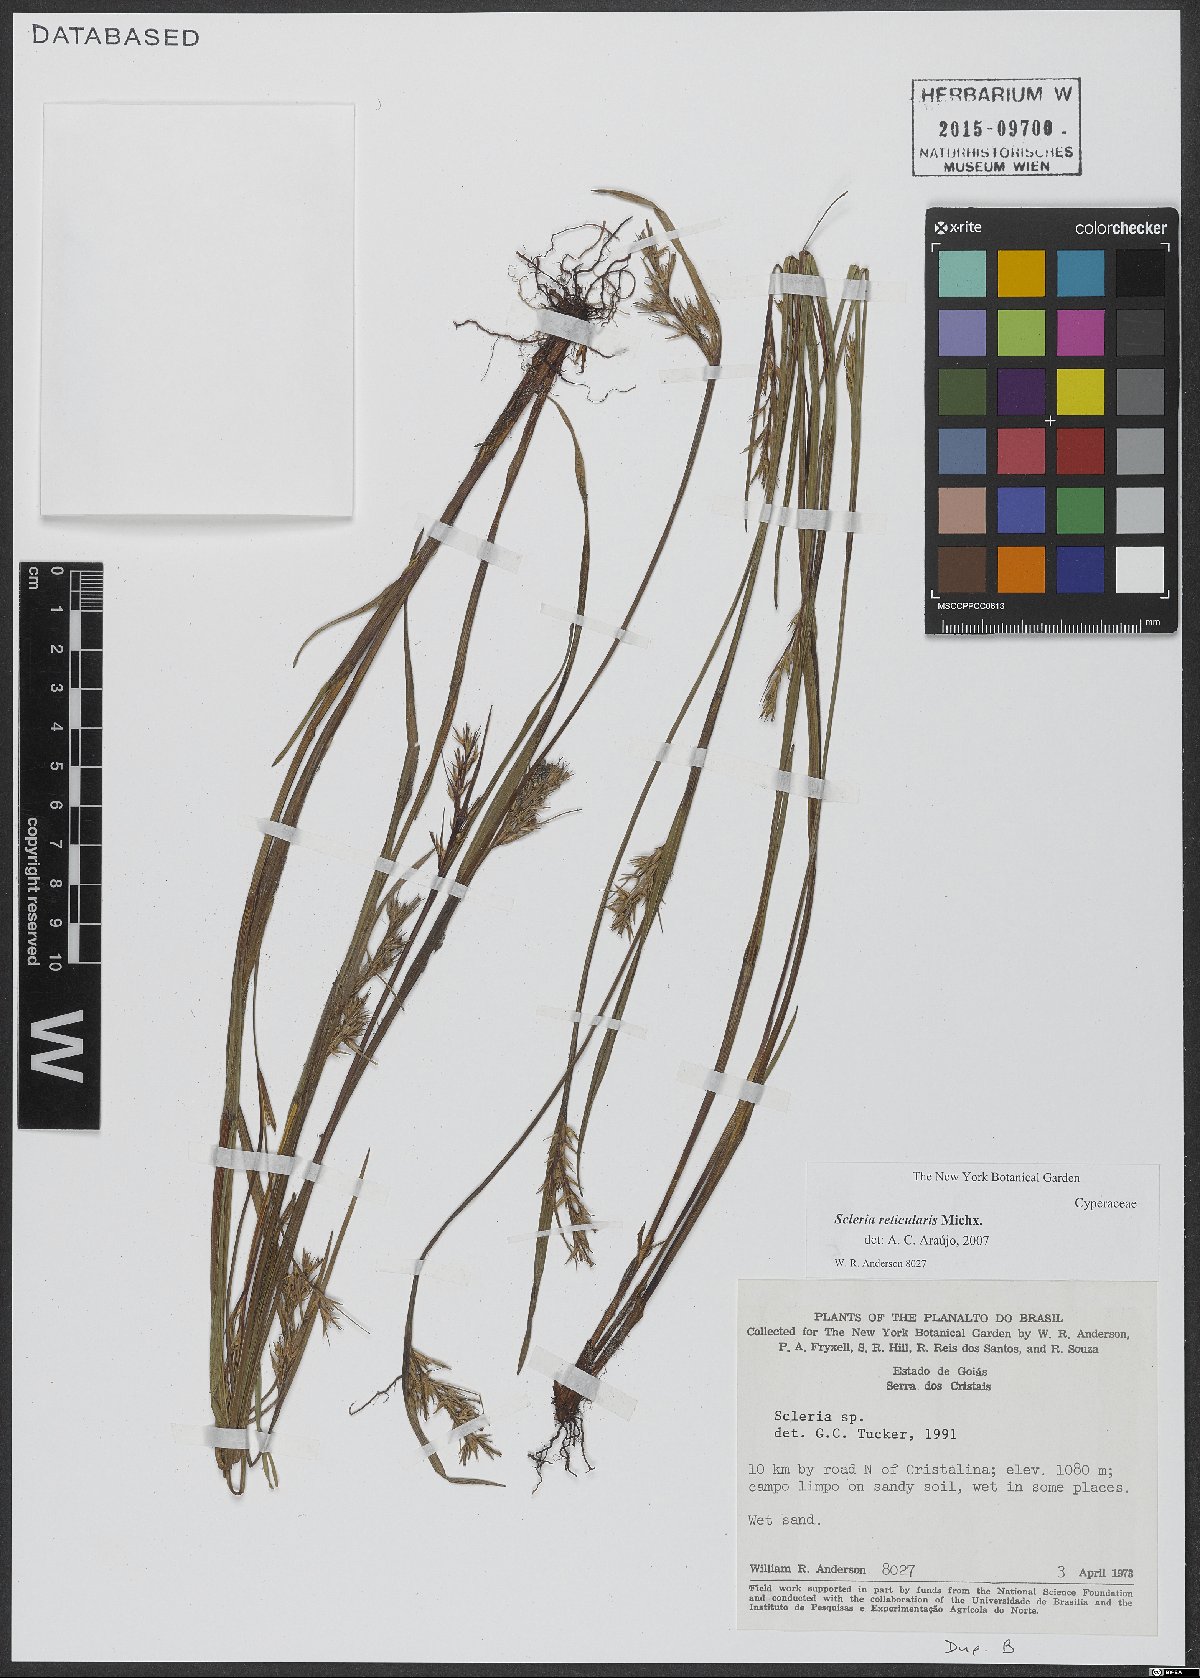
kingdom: Plantae
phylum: Tracheophyta
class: Liliopsida
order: Poales
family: Cyperaceae
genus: Scleria
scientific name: Scleria reticularis
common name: Netted nutrush
